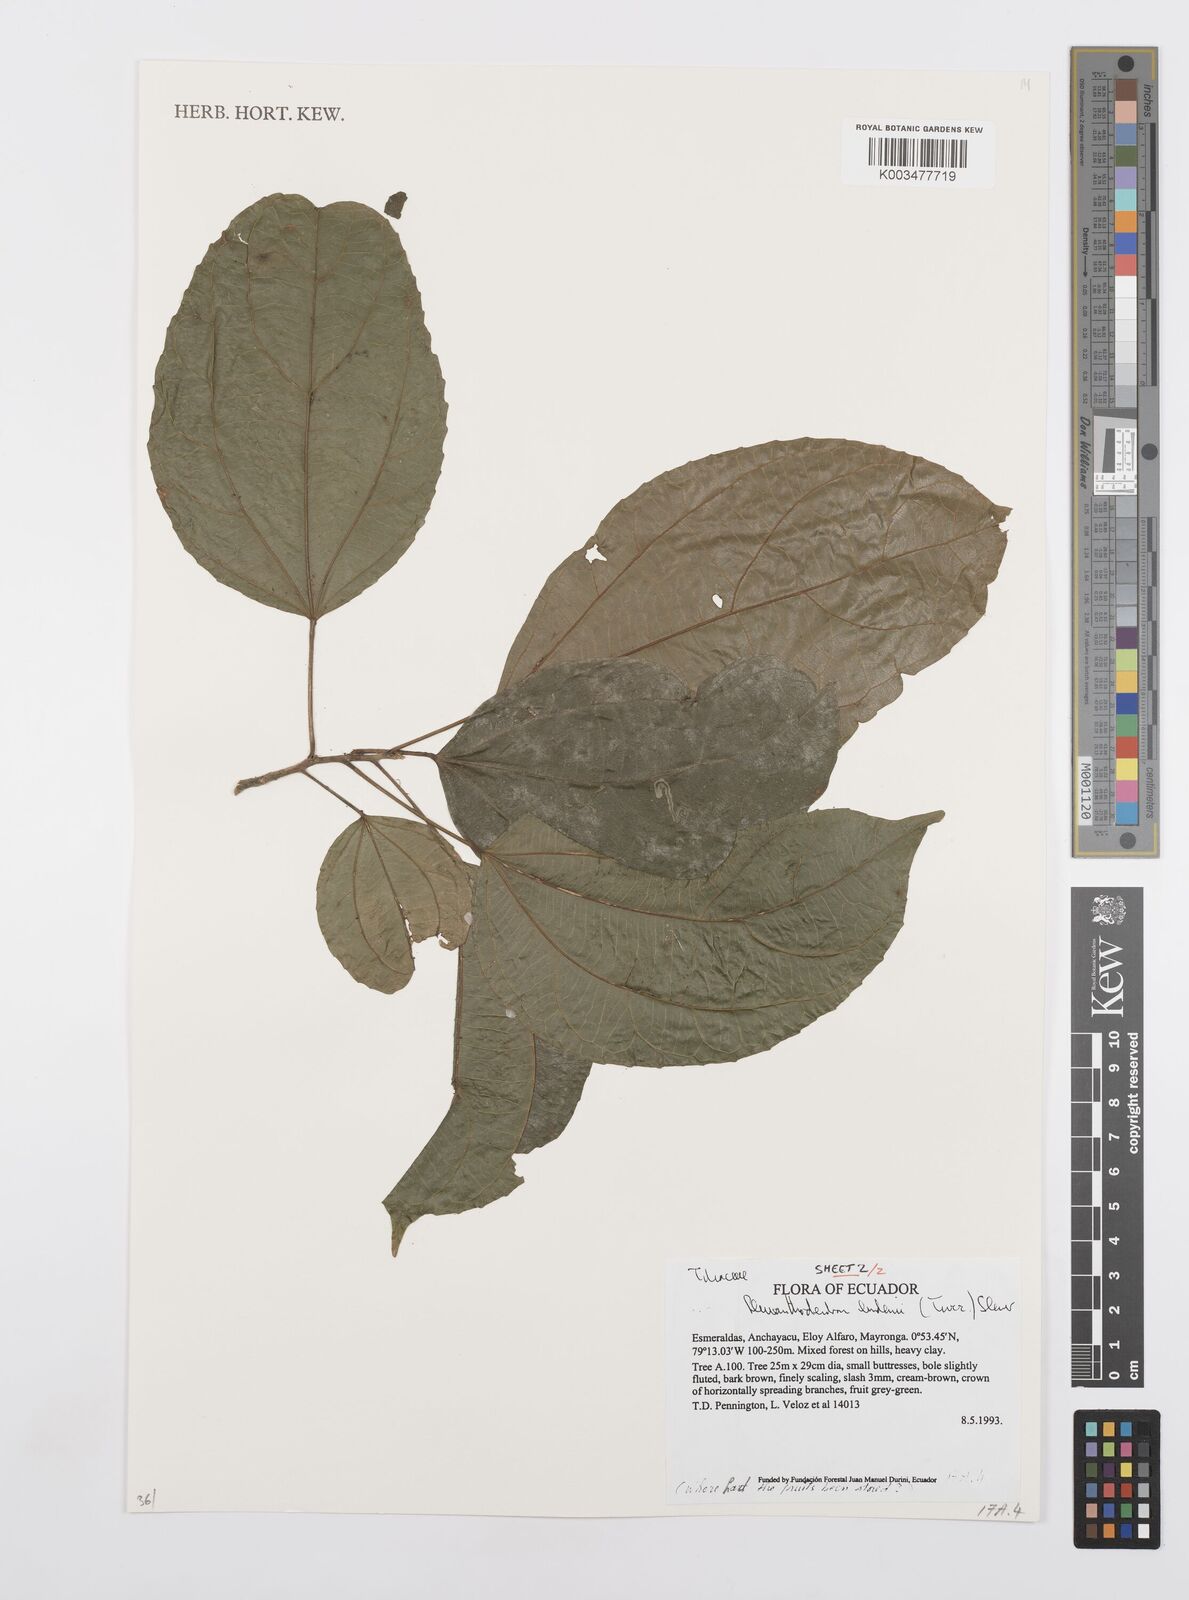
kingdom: Plantae
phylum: Tracheophyta
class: Magnoliopsida
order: Malpighiales
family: Salicaceae
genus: Pleuranthodendron
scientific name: Pleuranthodendron lindenii
